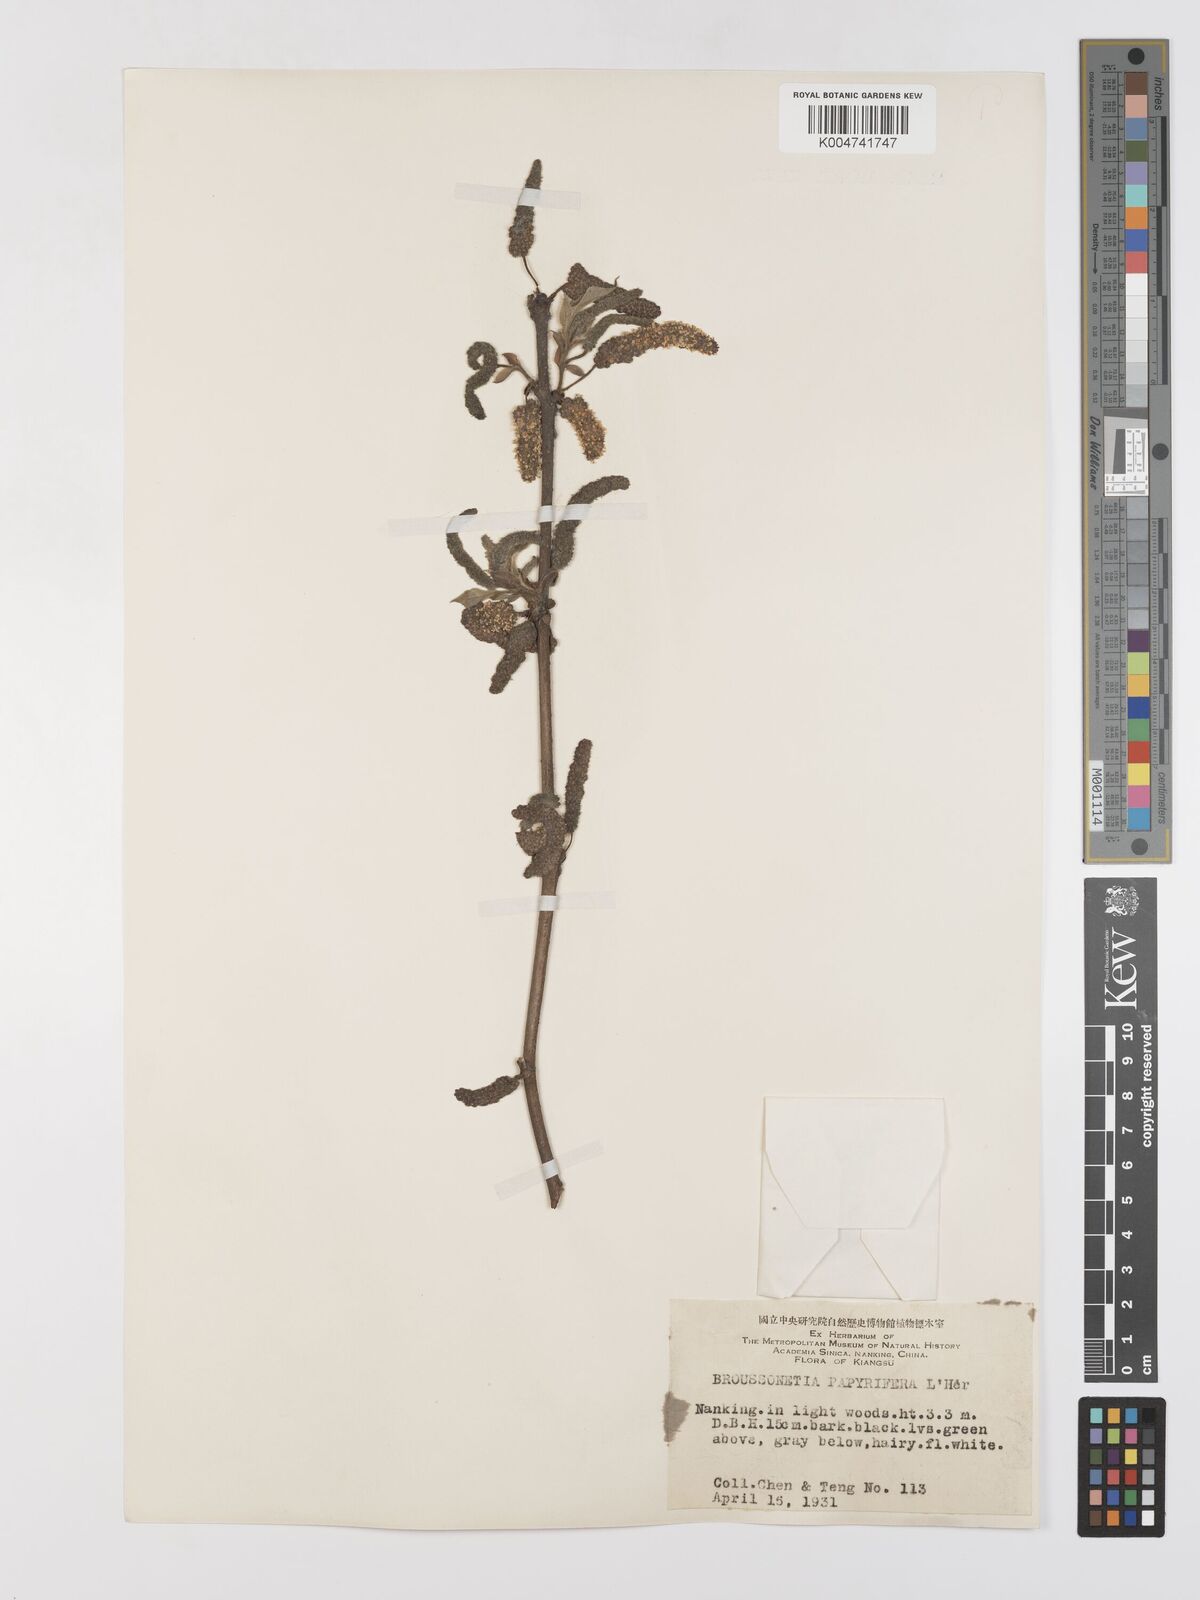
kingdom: Plantae
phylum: Tracheophyta
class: Magnoliopsida
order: Rosales
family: Moraceae
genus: Broussonetia
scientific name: Broussonetia
